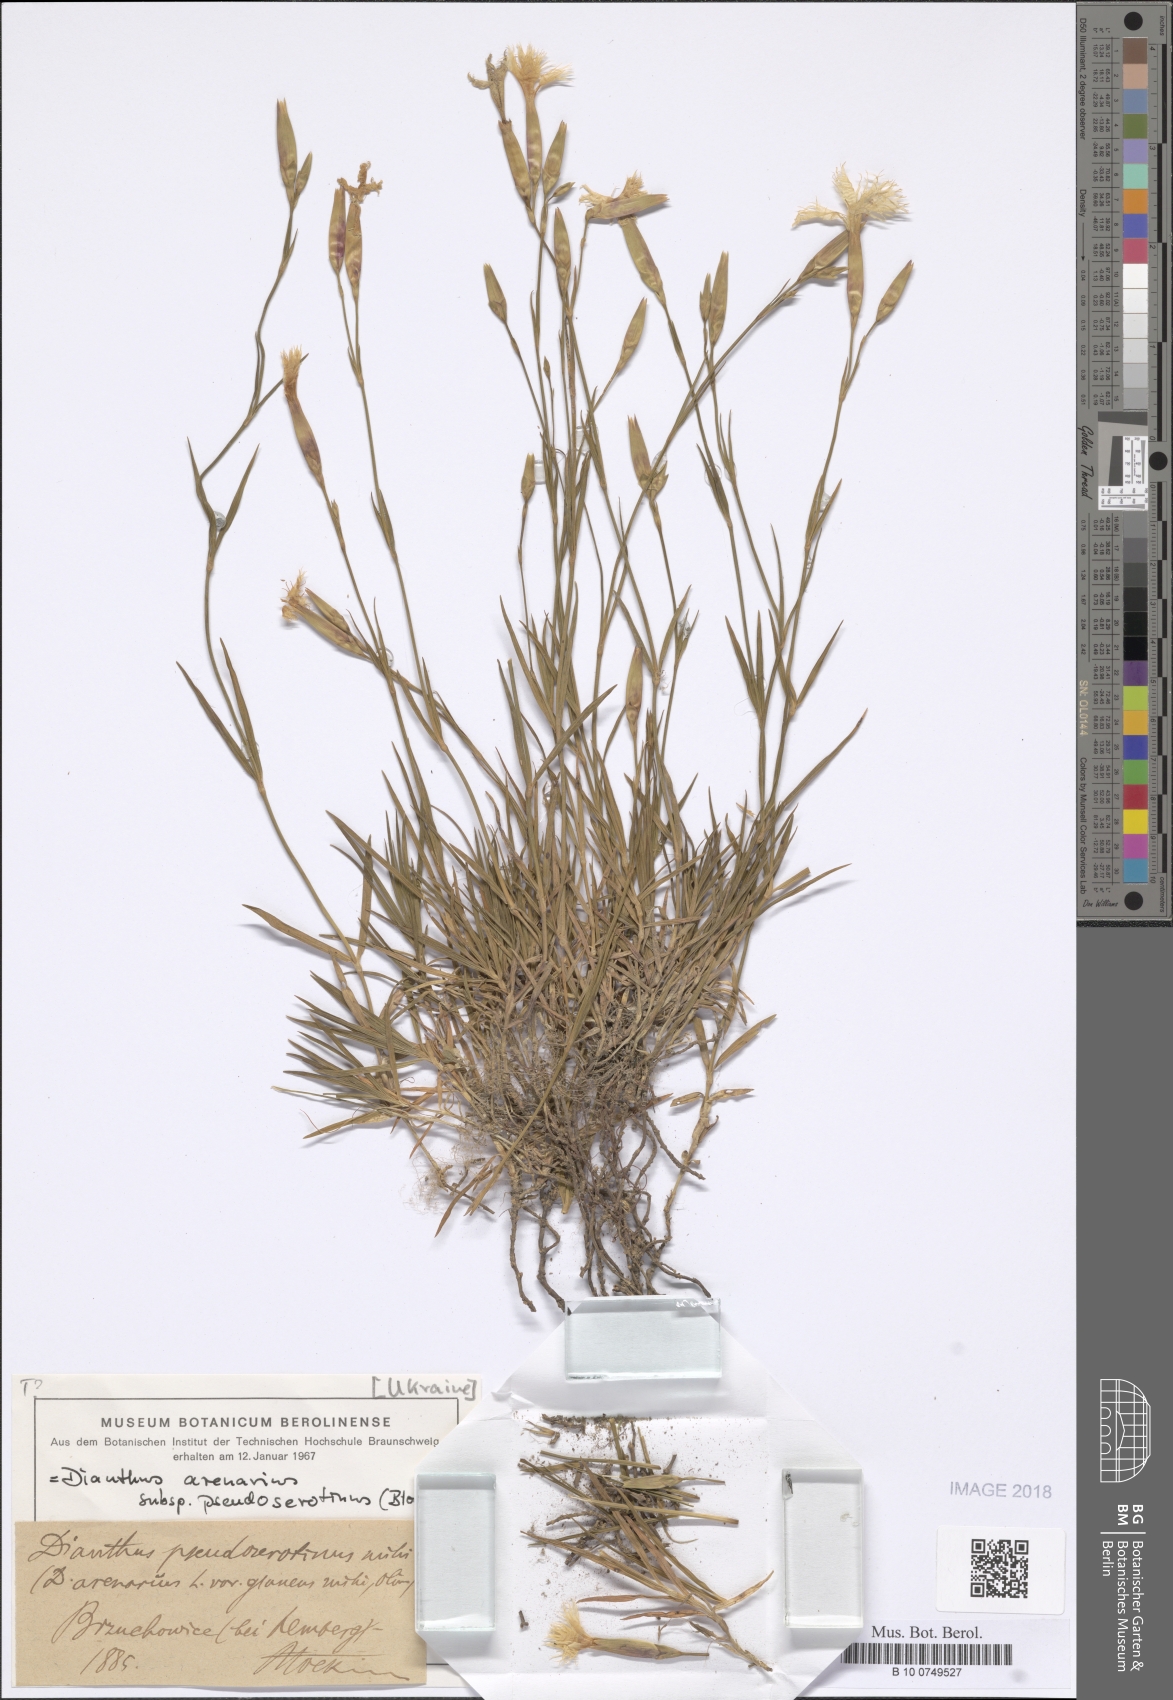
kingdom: Plantae
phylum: Tracheophyta
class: Magnoliopsida
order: Caryophyllales
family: Caryophyllaceae
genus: Dianthus
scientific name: Dianthus arenarius
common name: Stone pink
